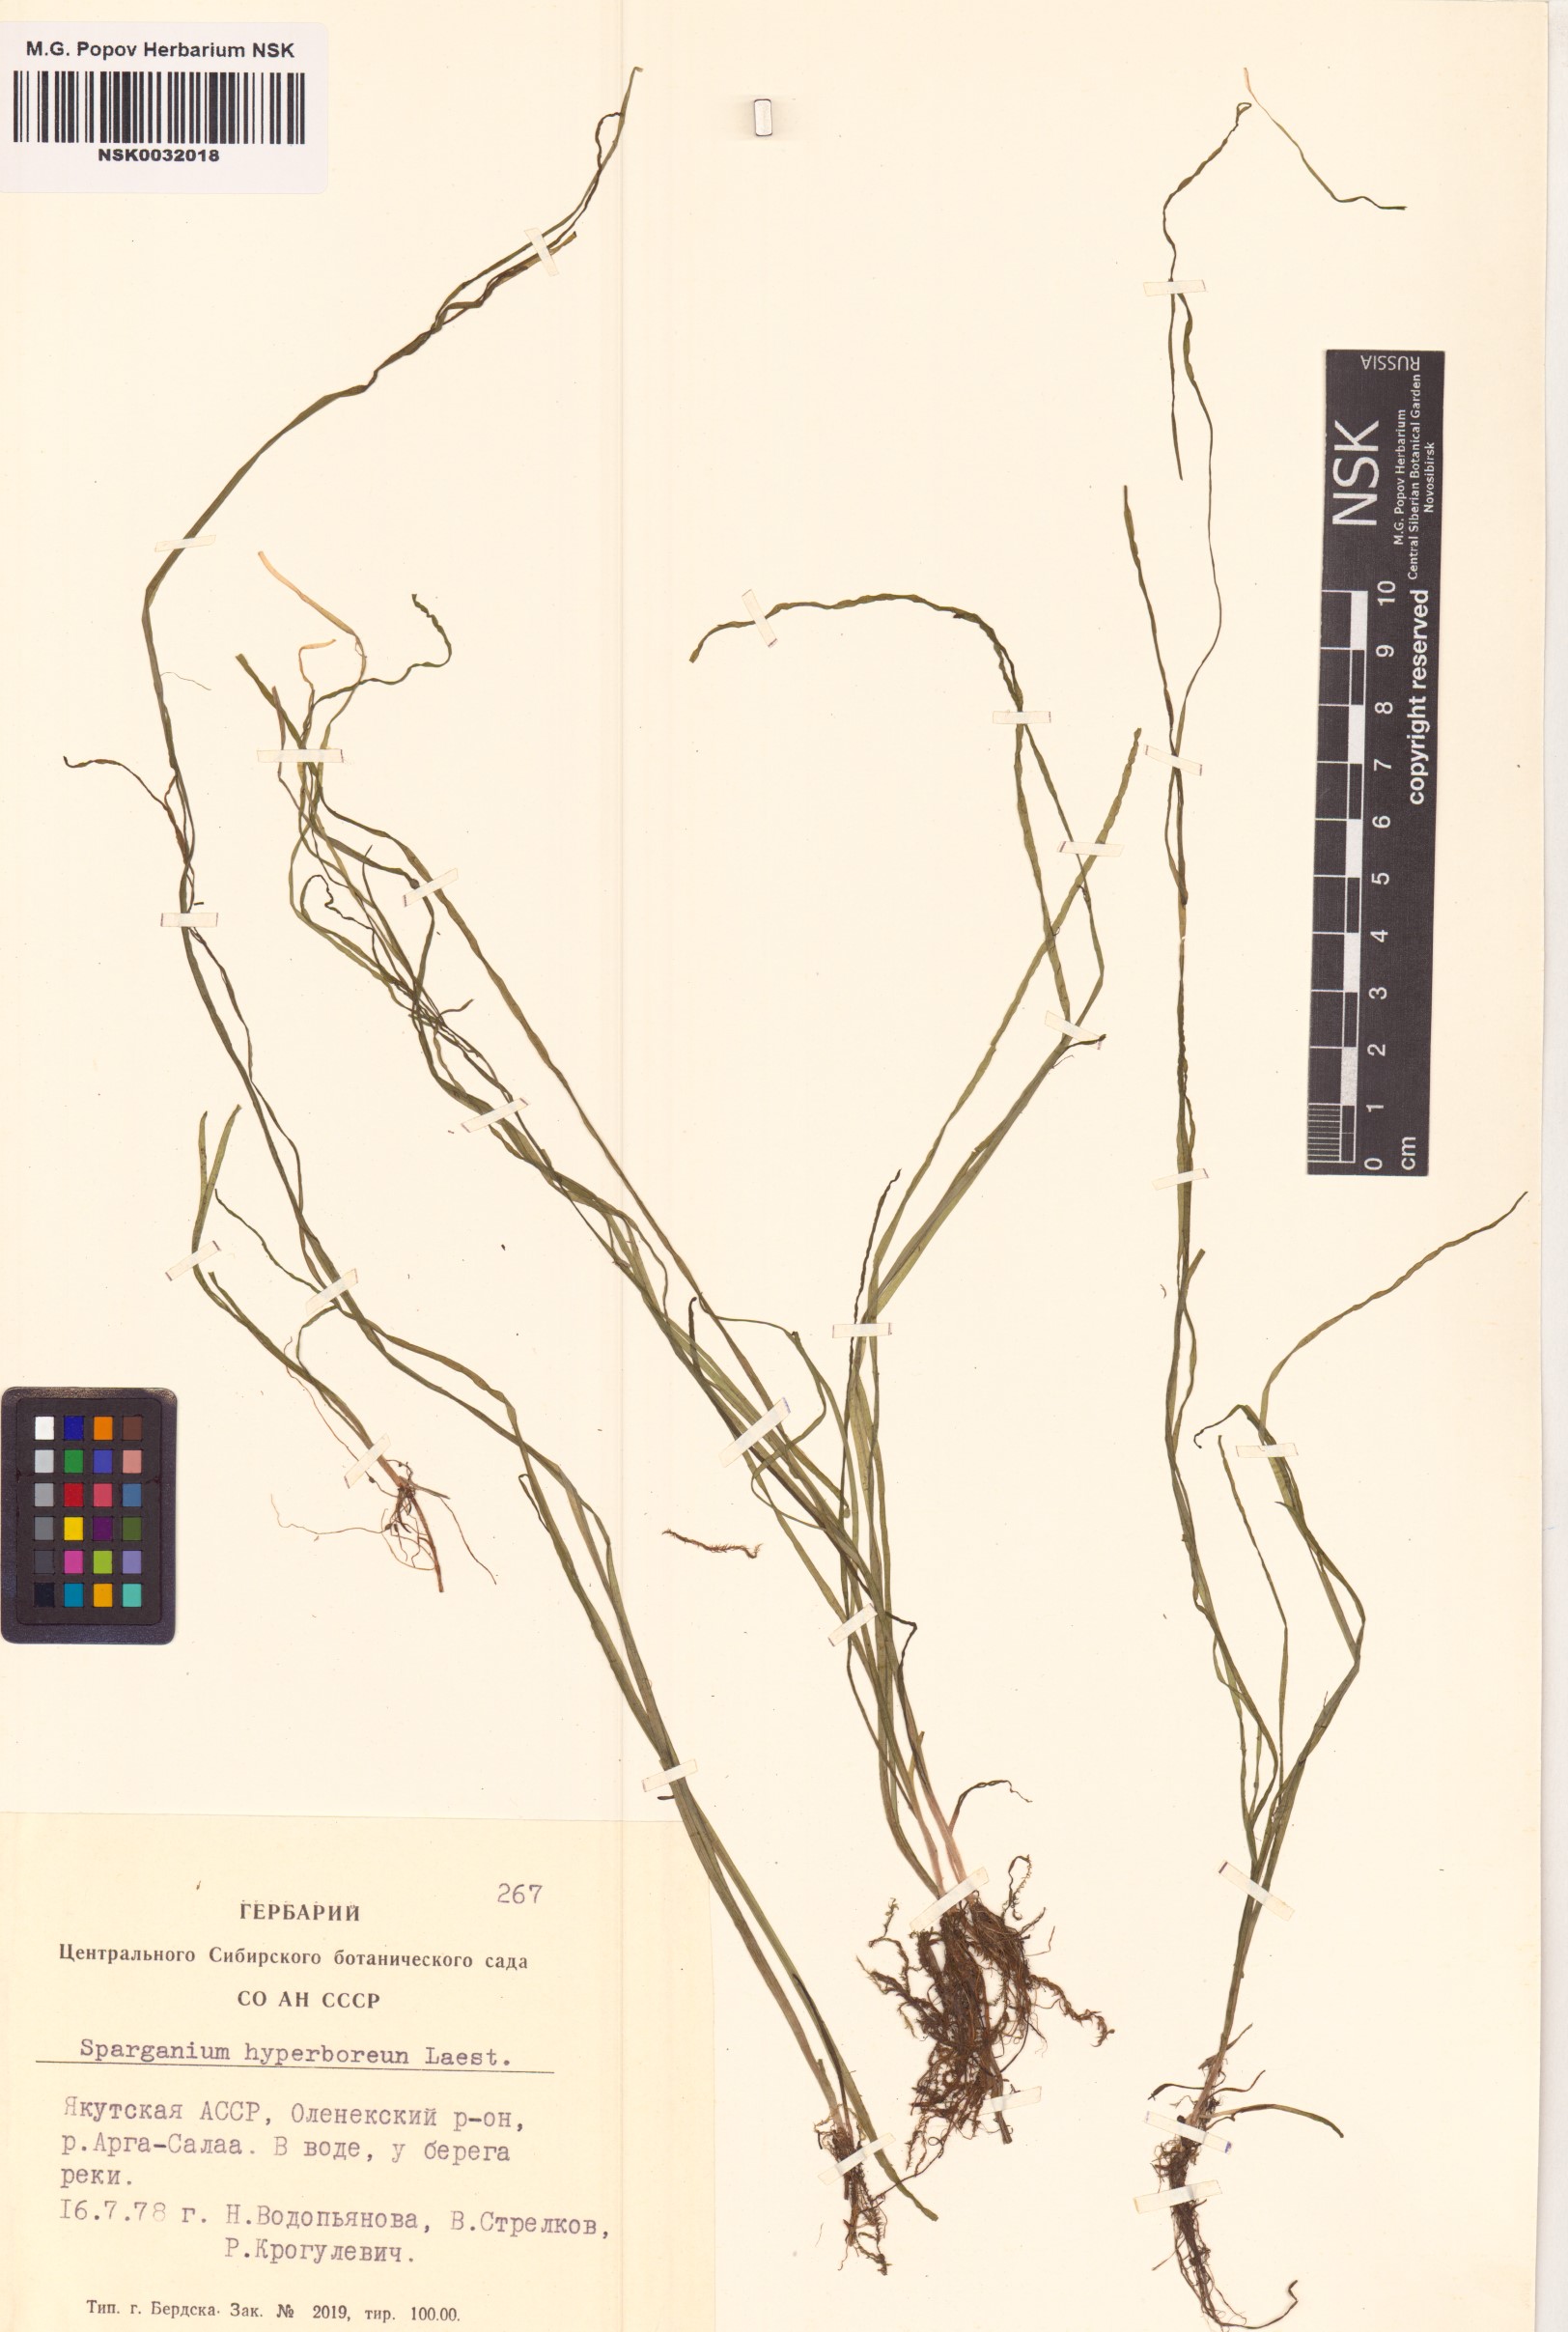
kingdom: Plantae
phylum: Tracheophyta
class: Liliopsida
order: Poales
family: Typhaceae
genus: Sparganium
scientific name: Sparganium hyperboreum
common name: Arctic burreed
